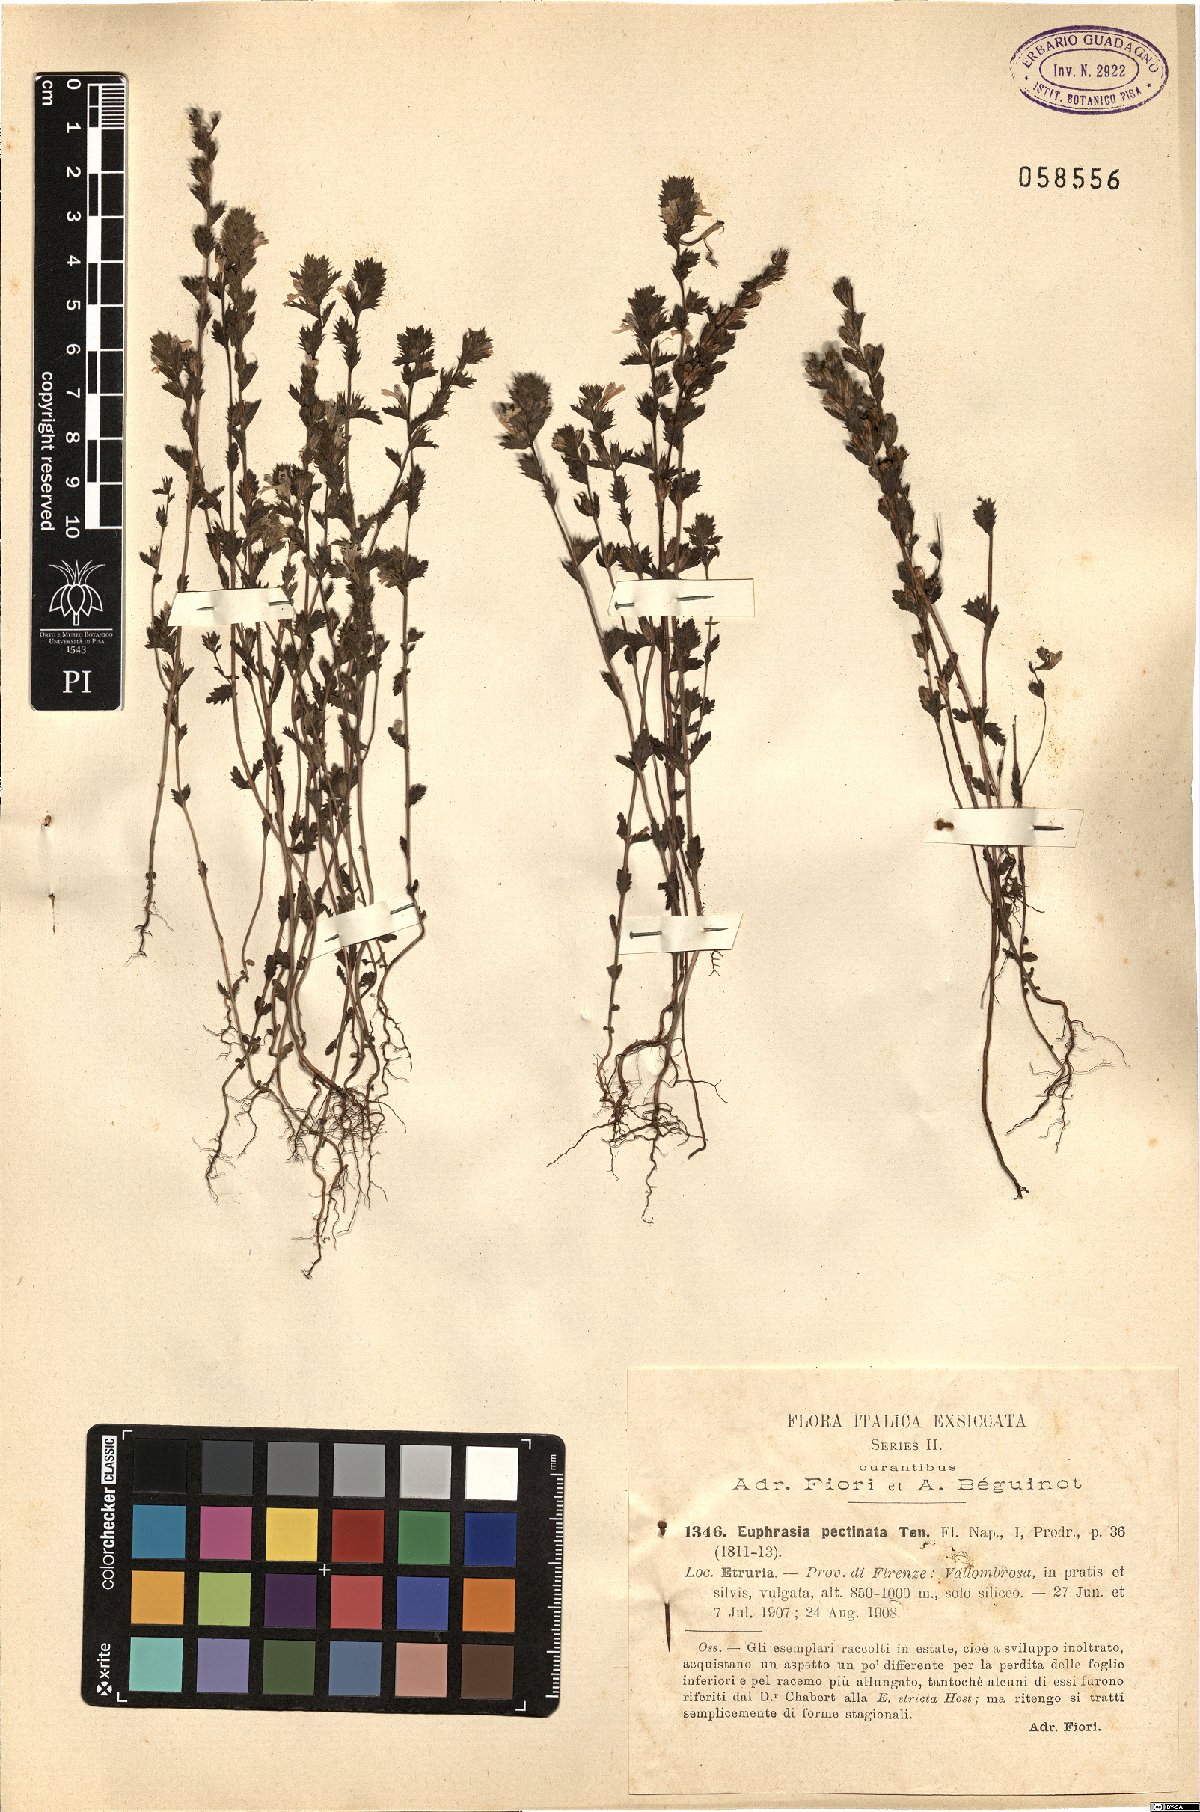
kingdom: Plantae
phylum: Tracheophyta
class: Magnoliopsida
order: Lamiales
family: Orobanchaceae
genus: Euphrasia
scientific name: Euphrasia pectinata
